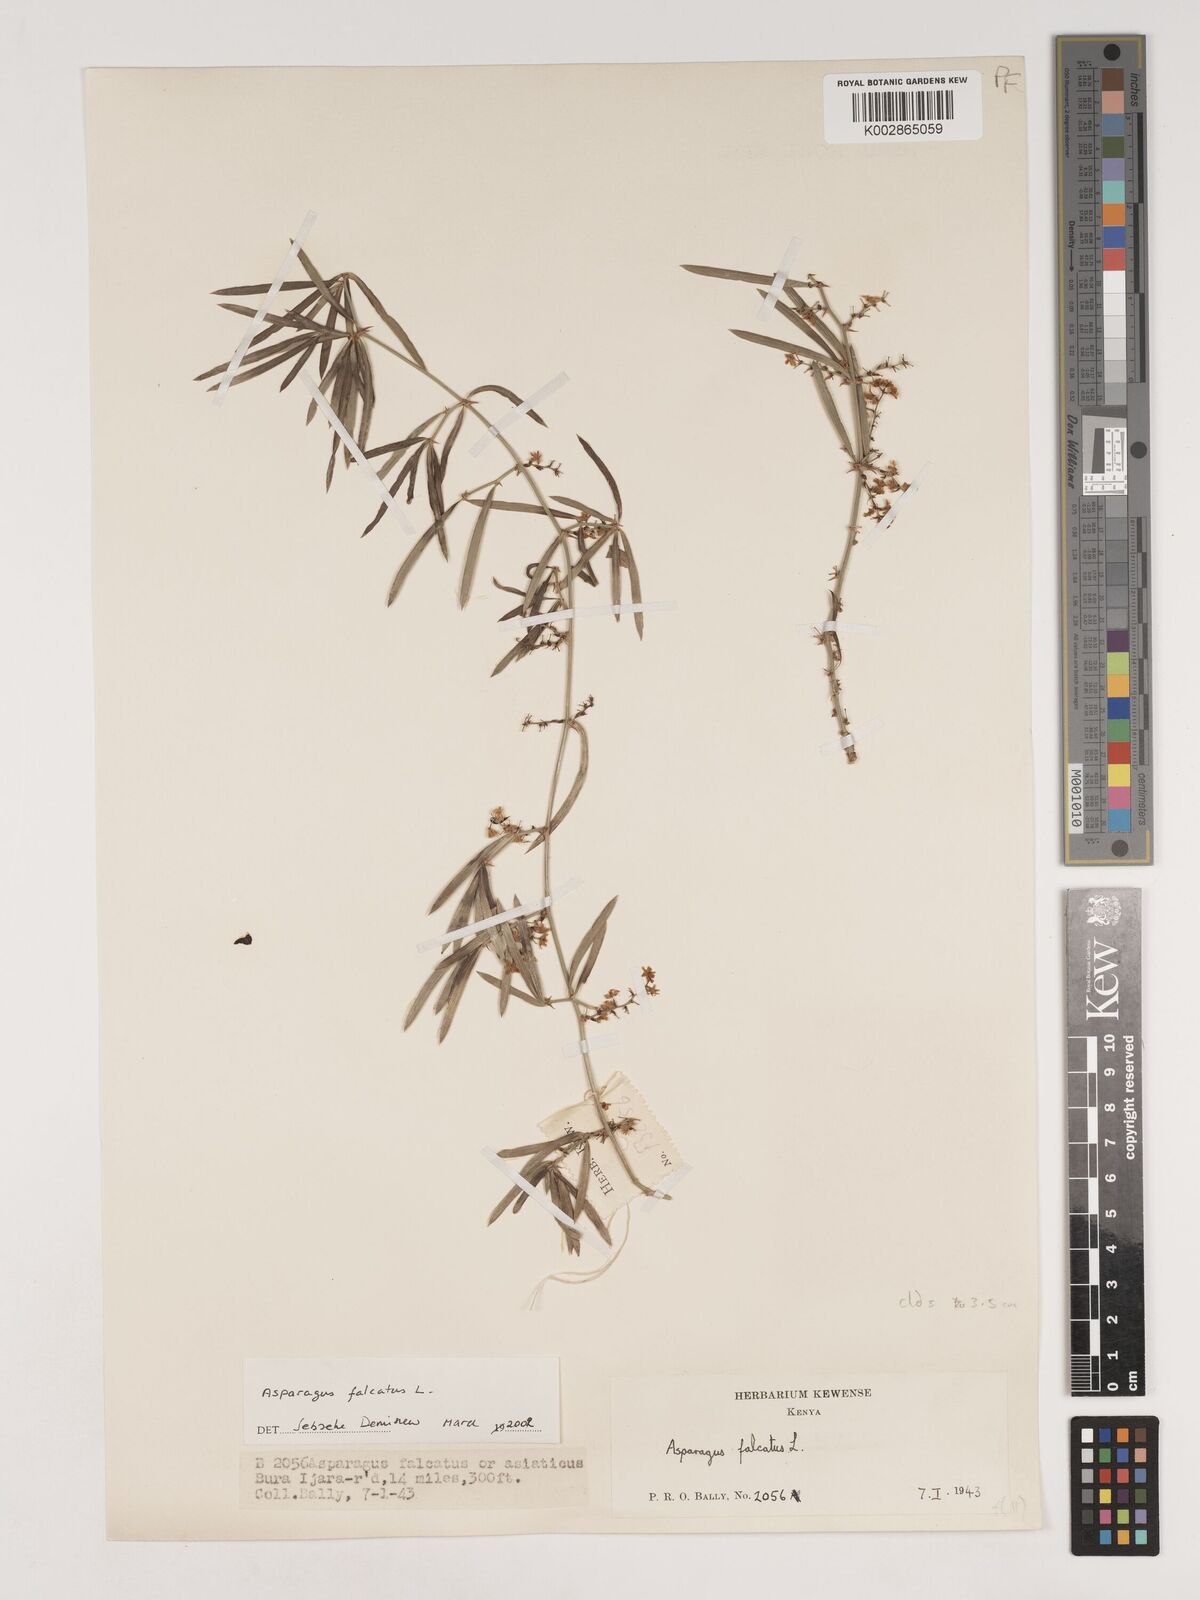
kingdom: Plantae
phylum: Tracheophyta
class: Liliopsida
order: Asparagales
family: Asparagaceae
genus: Asparagus
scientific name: Asparagus falcatus
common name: Asparagus
